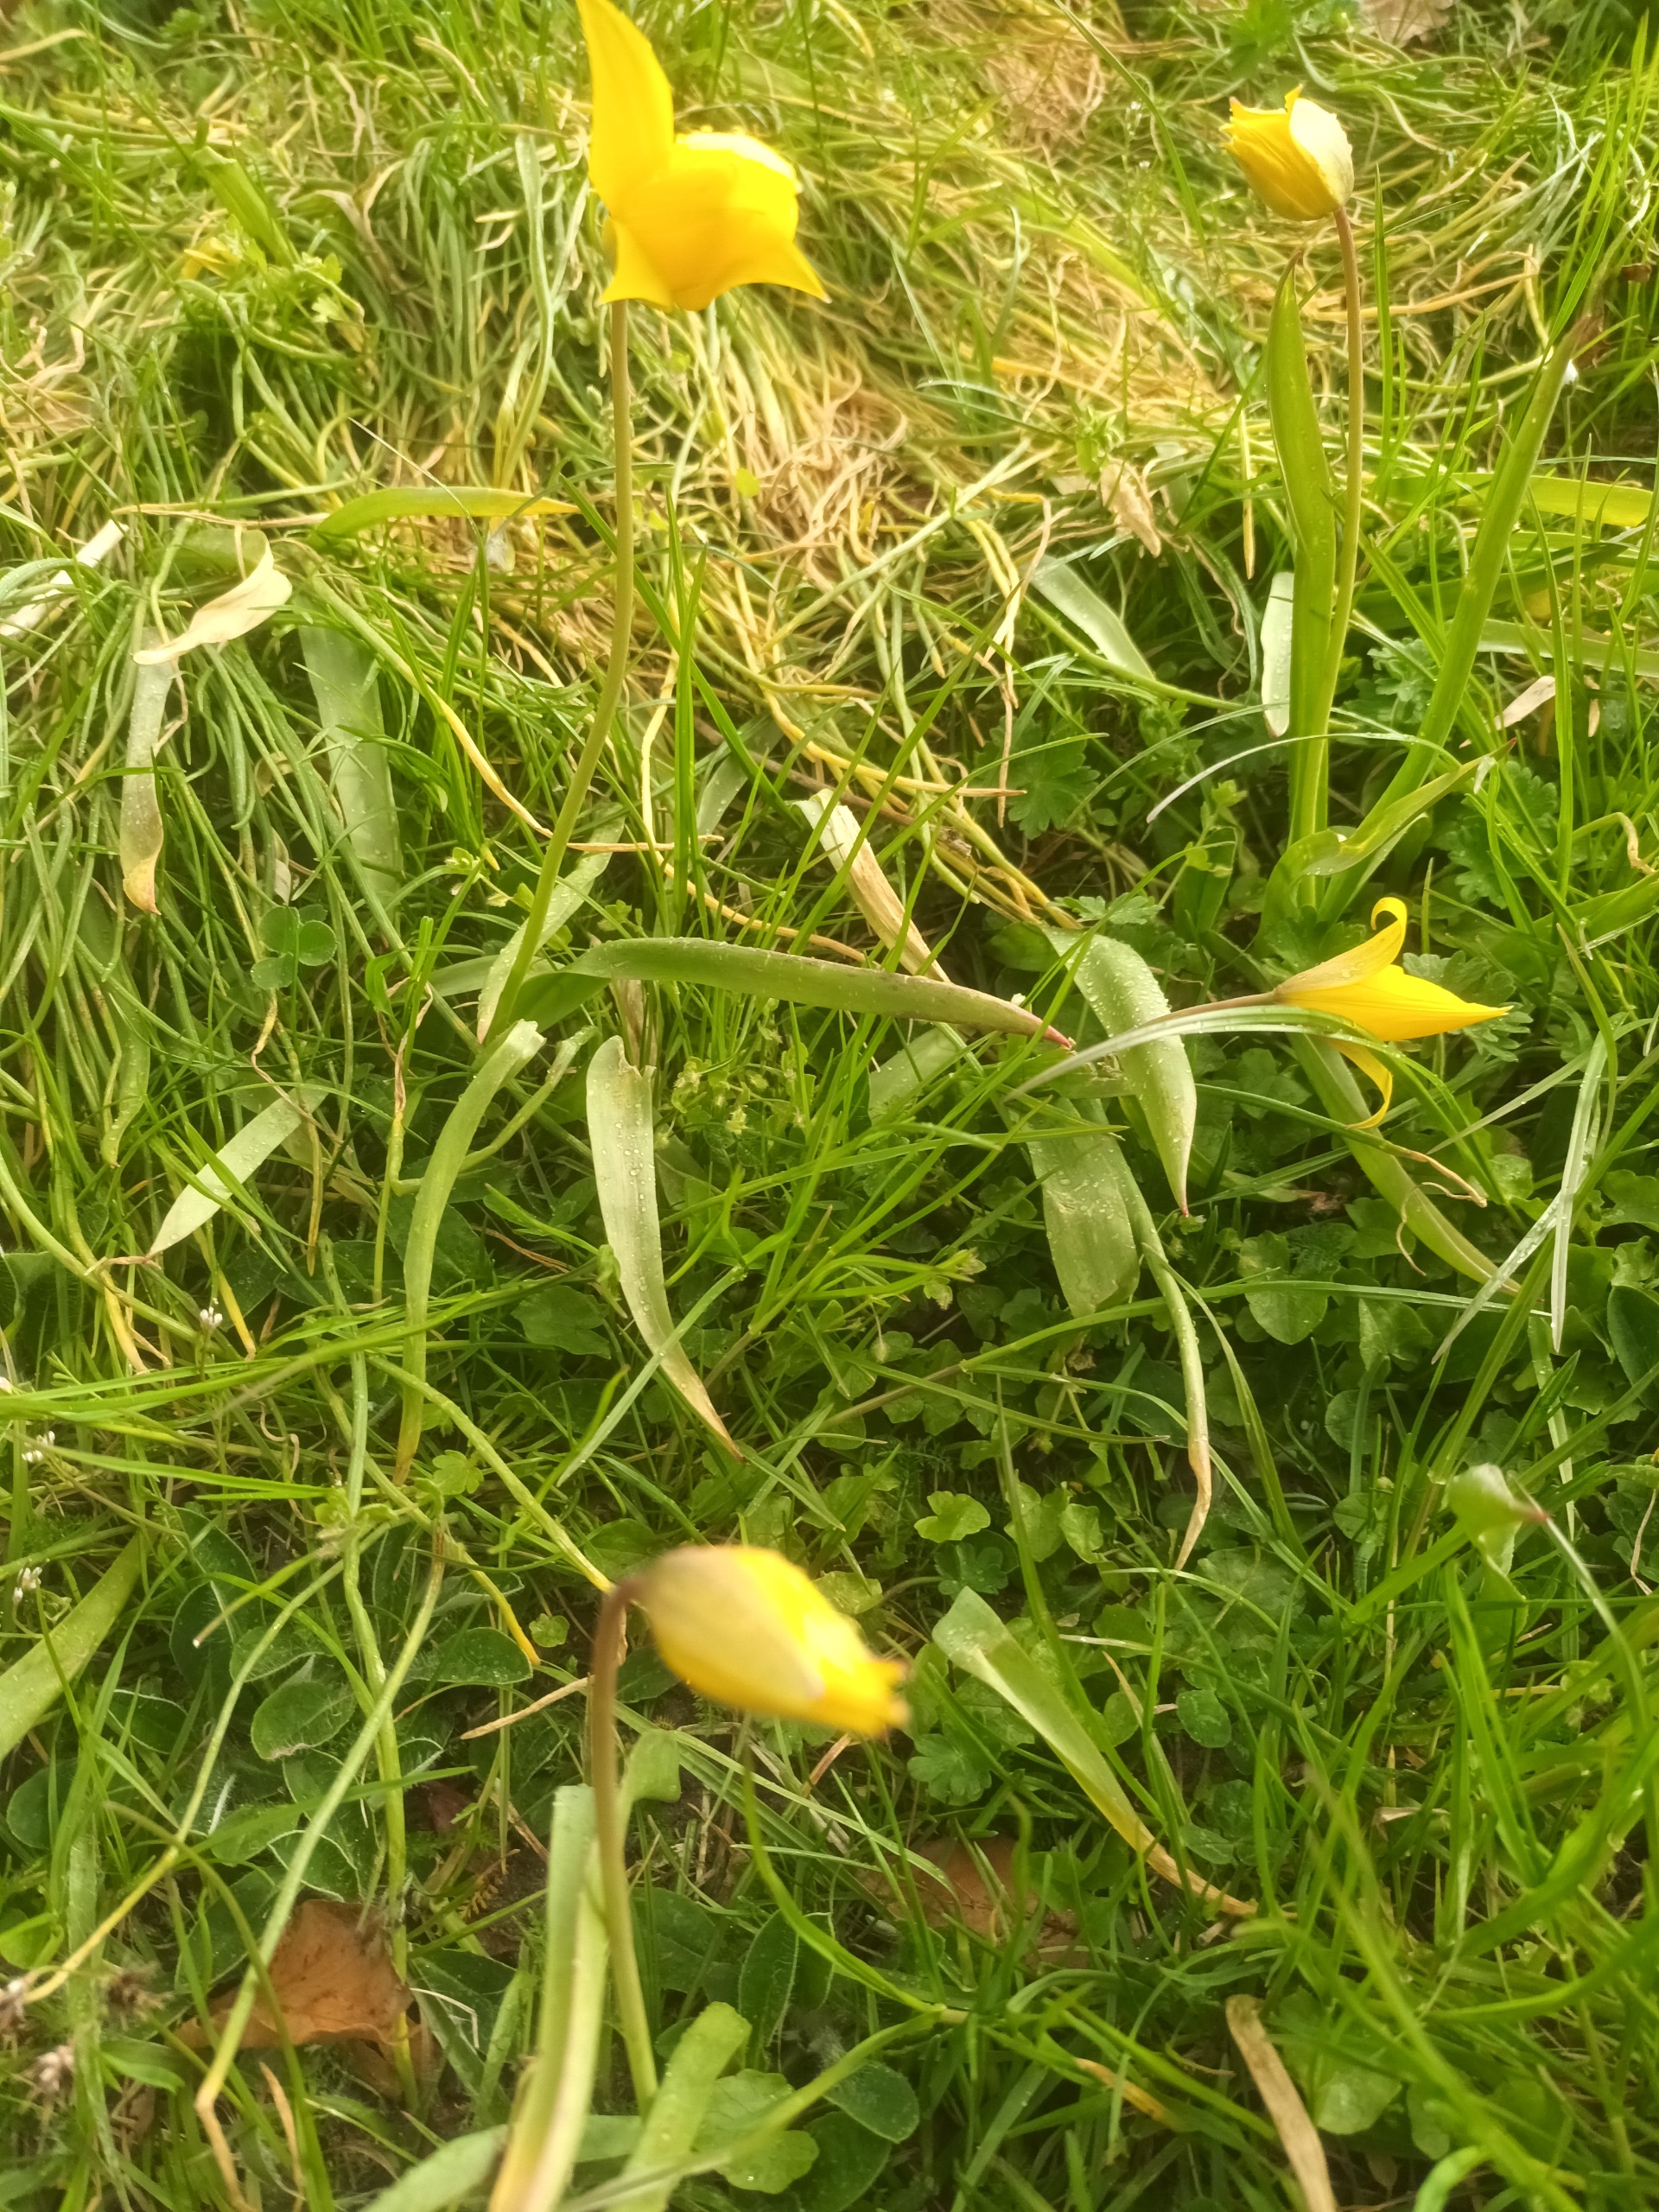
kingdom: Plantae
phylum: Tracheophyta
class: Liliopsida
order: Liliales
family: Liliaceae
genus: Tulipa
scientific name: Tulipa sylvestris
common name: Vild tulipan
